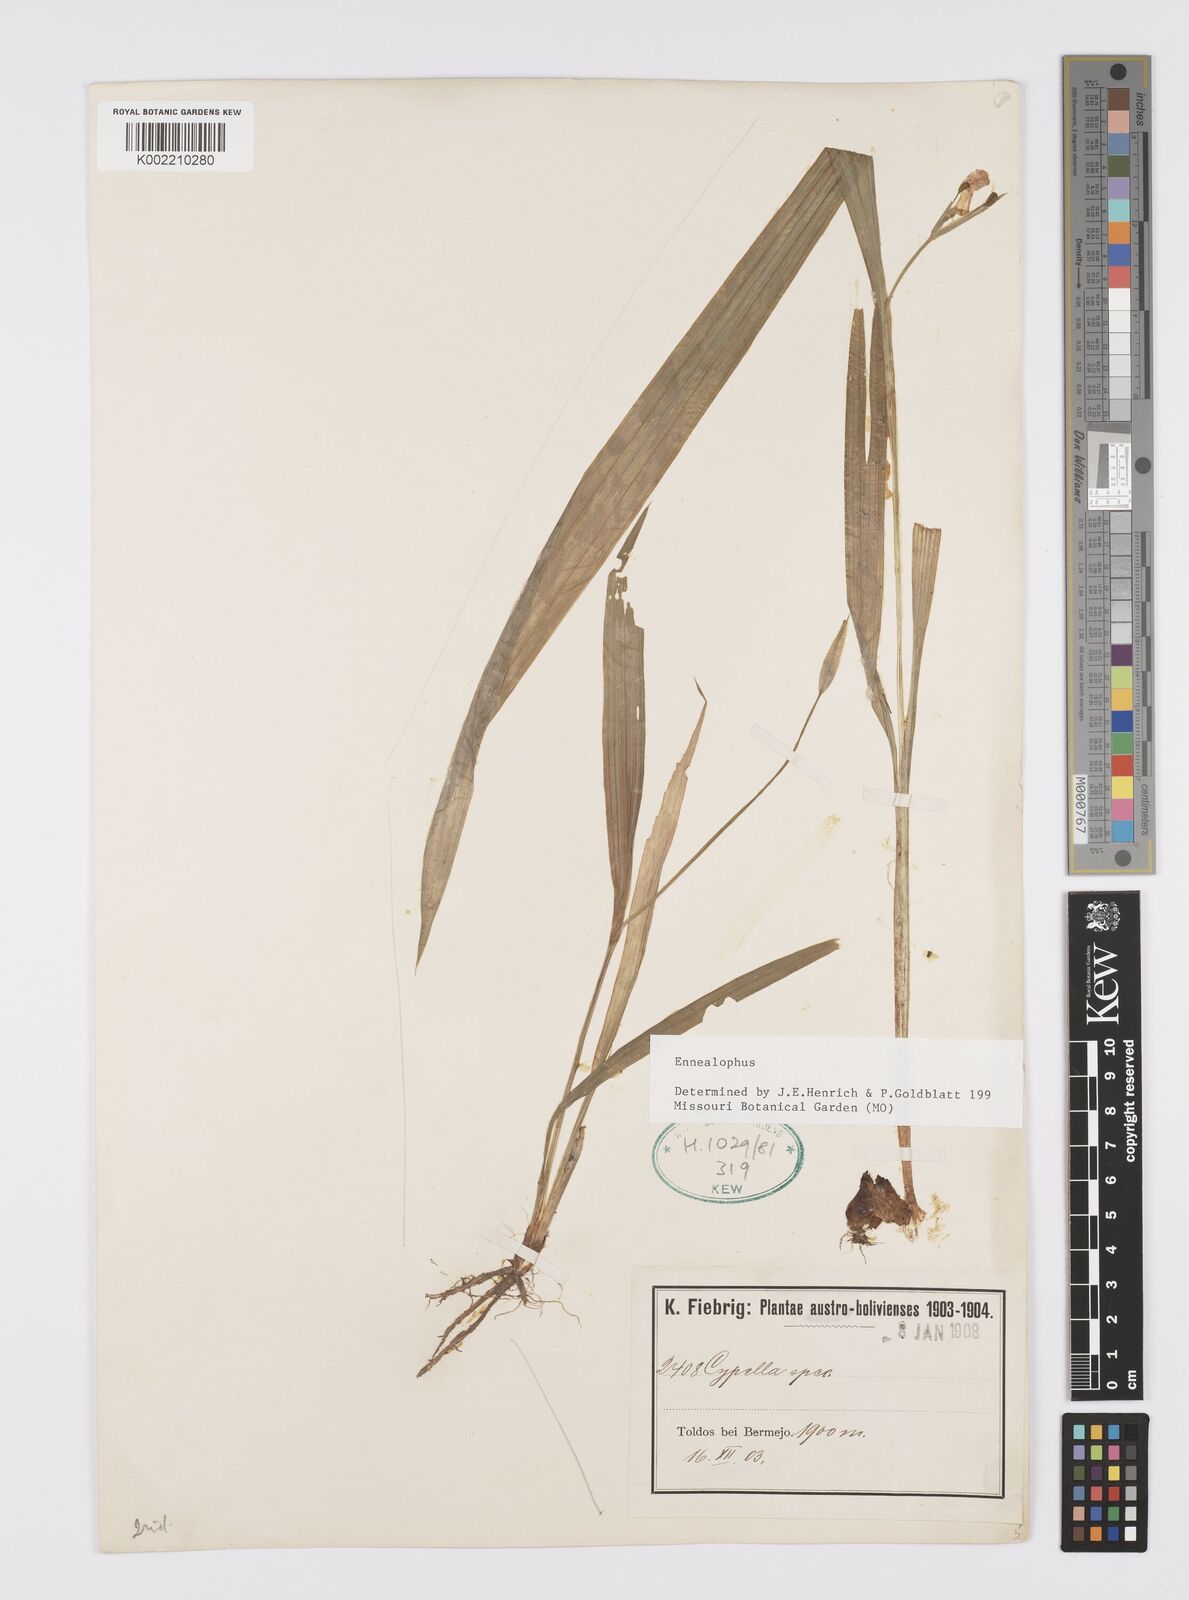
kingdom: Plantae
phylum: Tracheophyta
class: Liliopsida
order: Asparagales
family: Iridaceae
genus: Ennealophus
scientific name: Ennealophus
